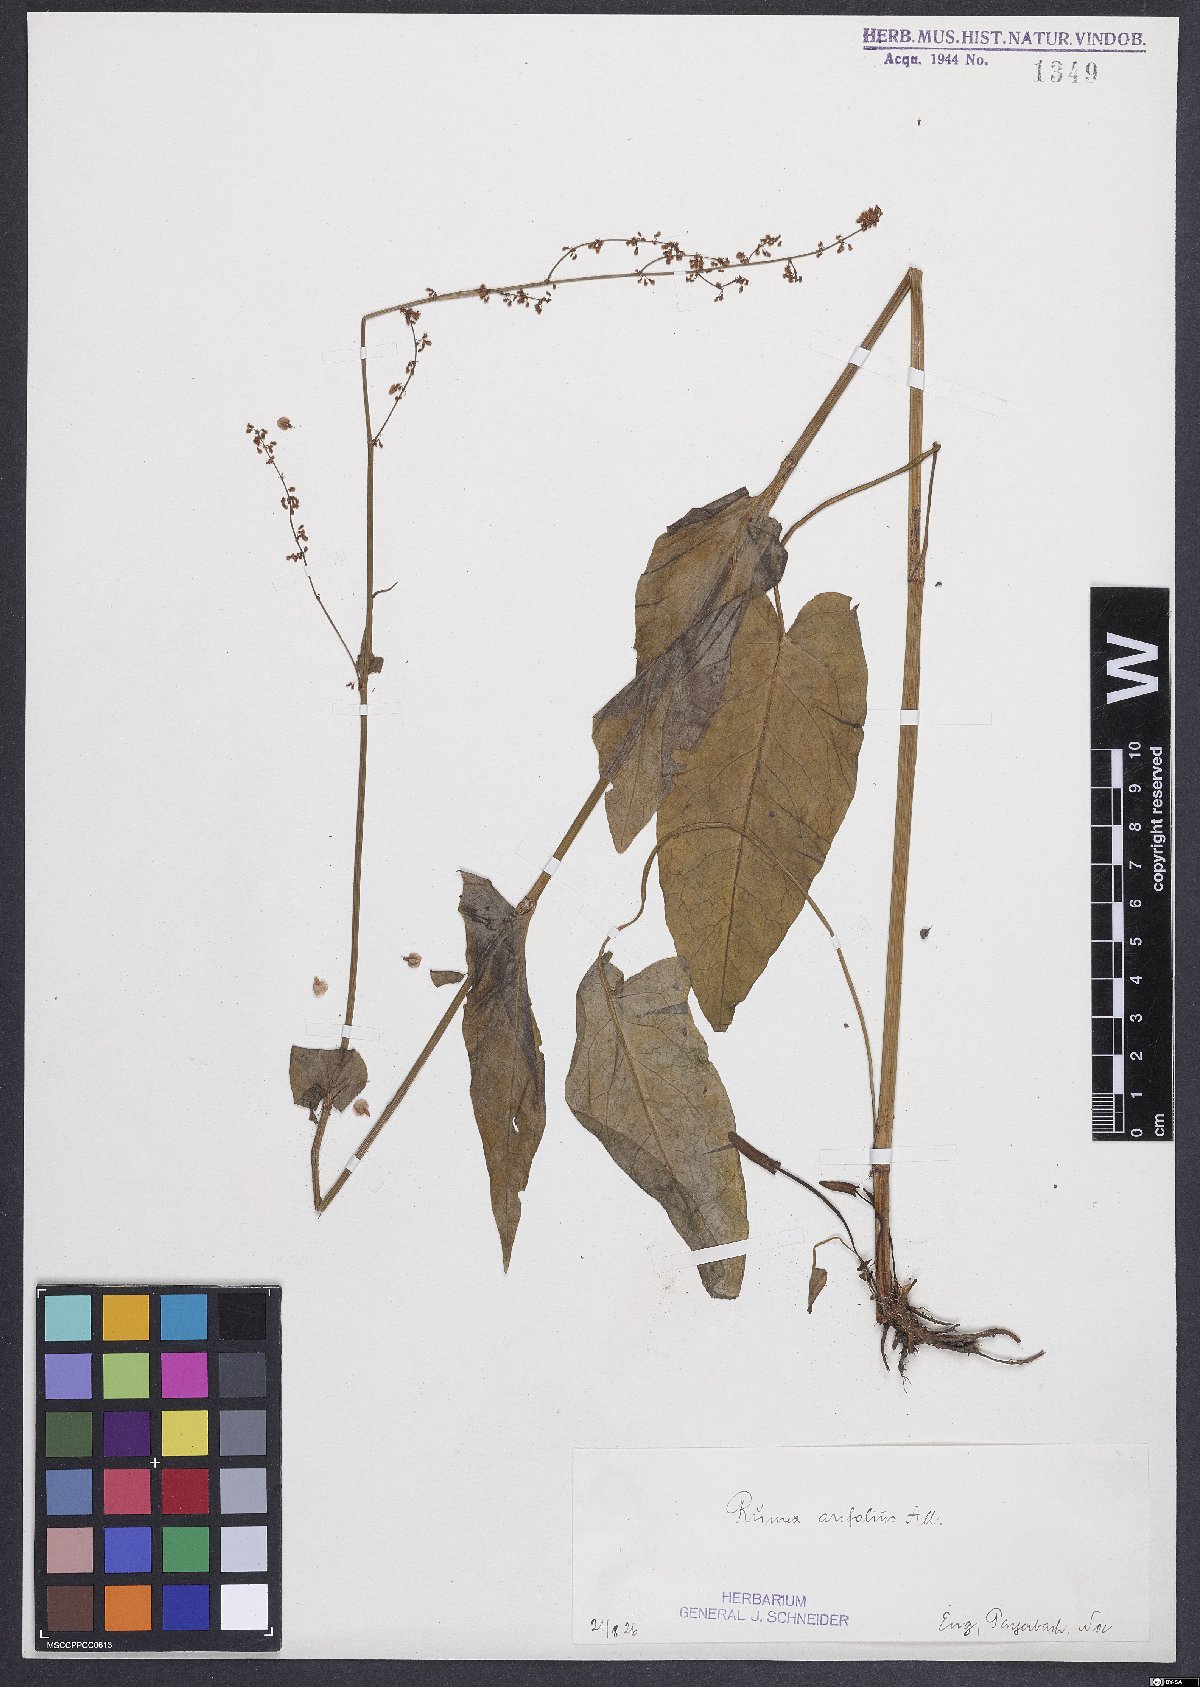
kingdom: Plantae
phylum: Tracheophyta
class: Magnoliopsida
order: Caryophyllales
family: Polygonaceae
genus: Rumex
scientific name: Rumex arifolius
